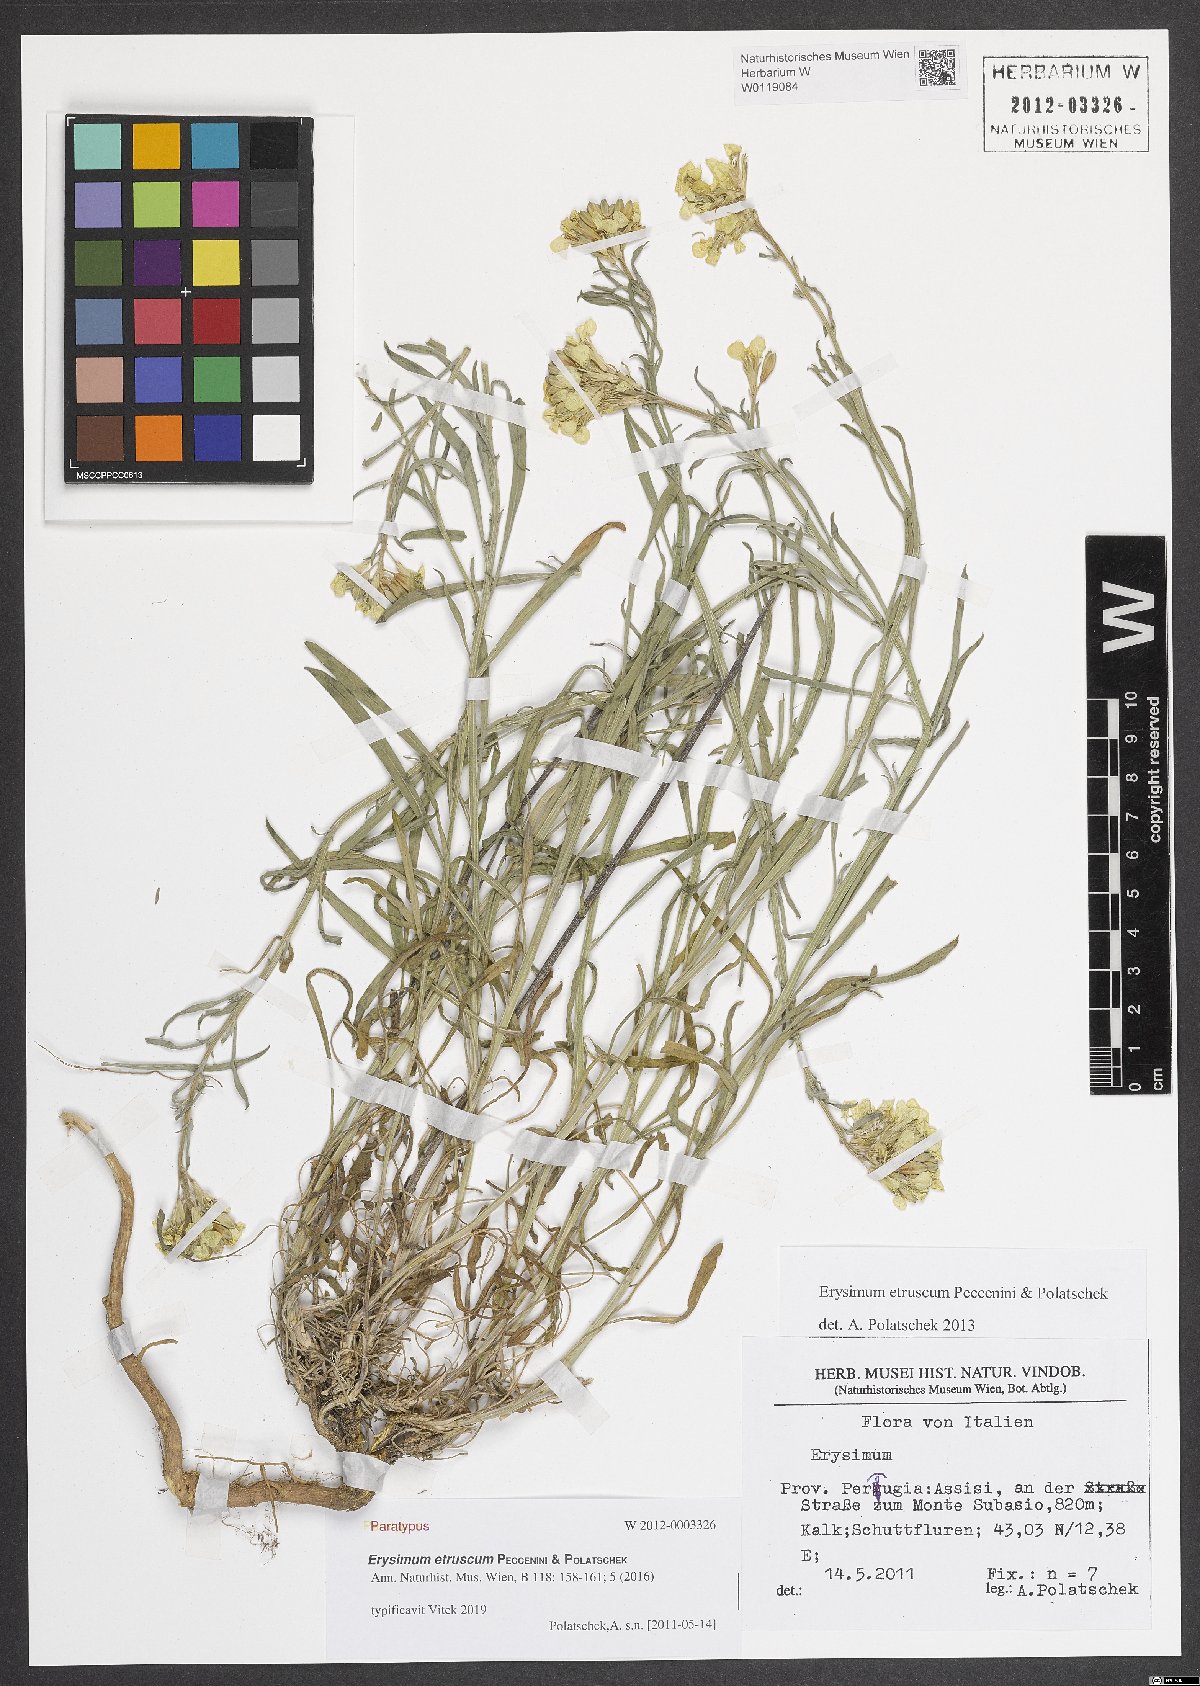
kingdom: Plantae
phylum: Tracheophyta
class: Magnoliopsida
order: Brassicales
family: Brassicaceae
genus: Erysimum
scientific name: Erysimum pseudorhaeticum
